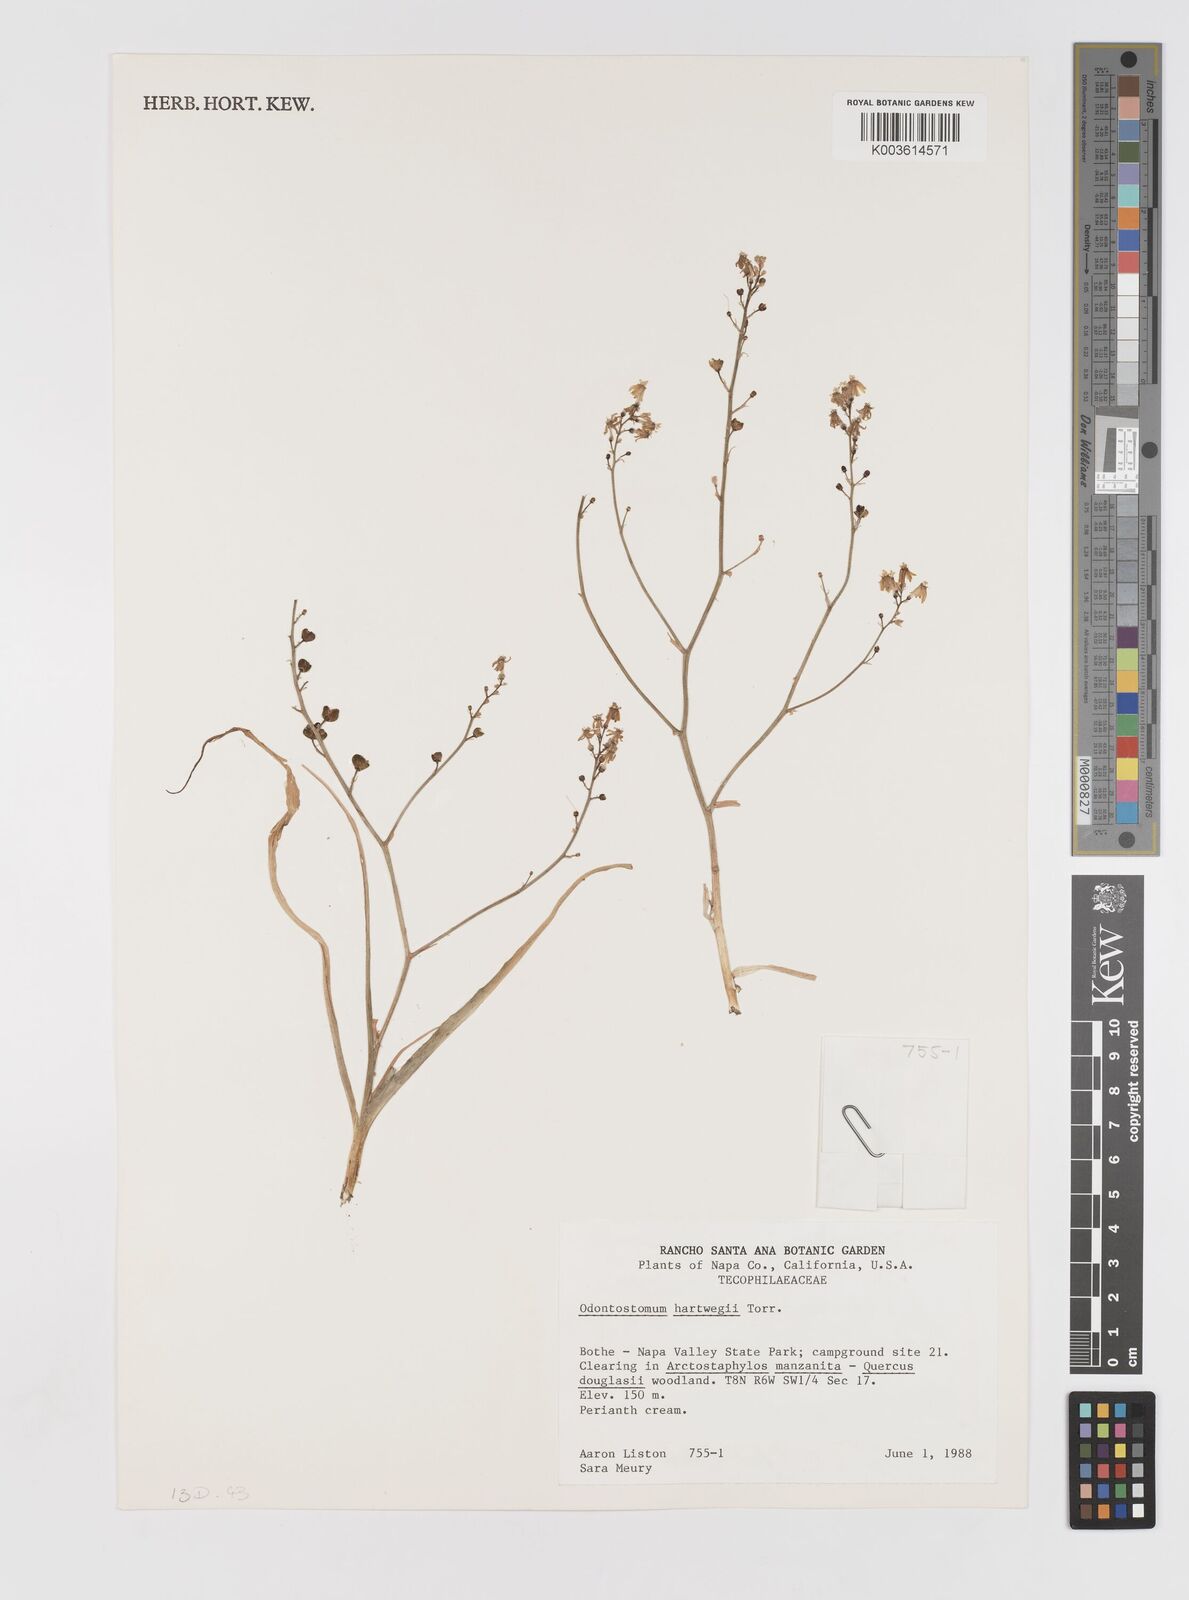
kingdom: Plantae
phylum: Tracheophyta
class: Liliopsida
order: Asparagales
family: Tecophilaeaceae
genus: Odontostomum
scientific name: Odontostomum hartwegii
